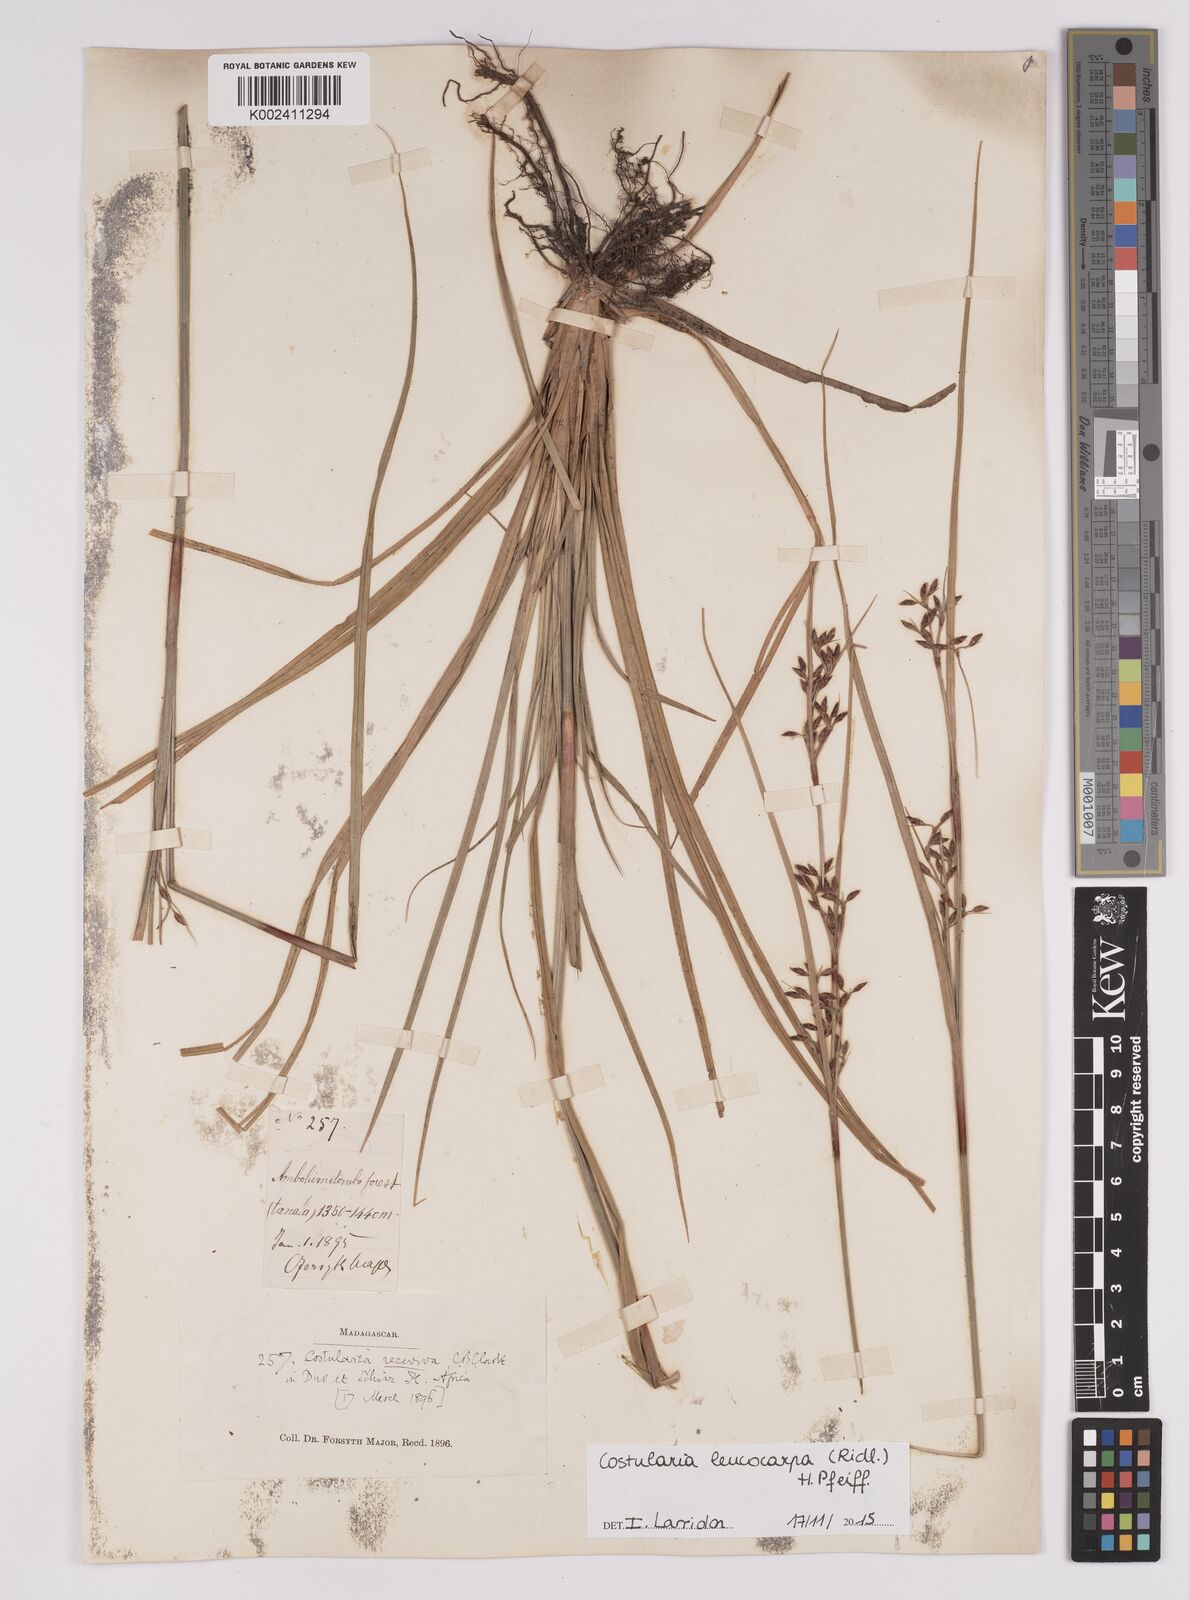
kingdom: Plantae
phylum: Tracheophyta
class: Liliopsida
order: Poales
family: Cyperaceae
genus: Costularia
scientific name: Costularia leucocarpa
